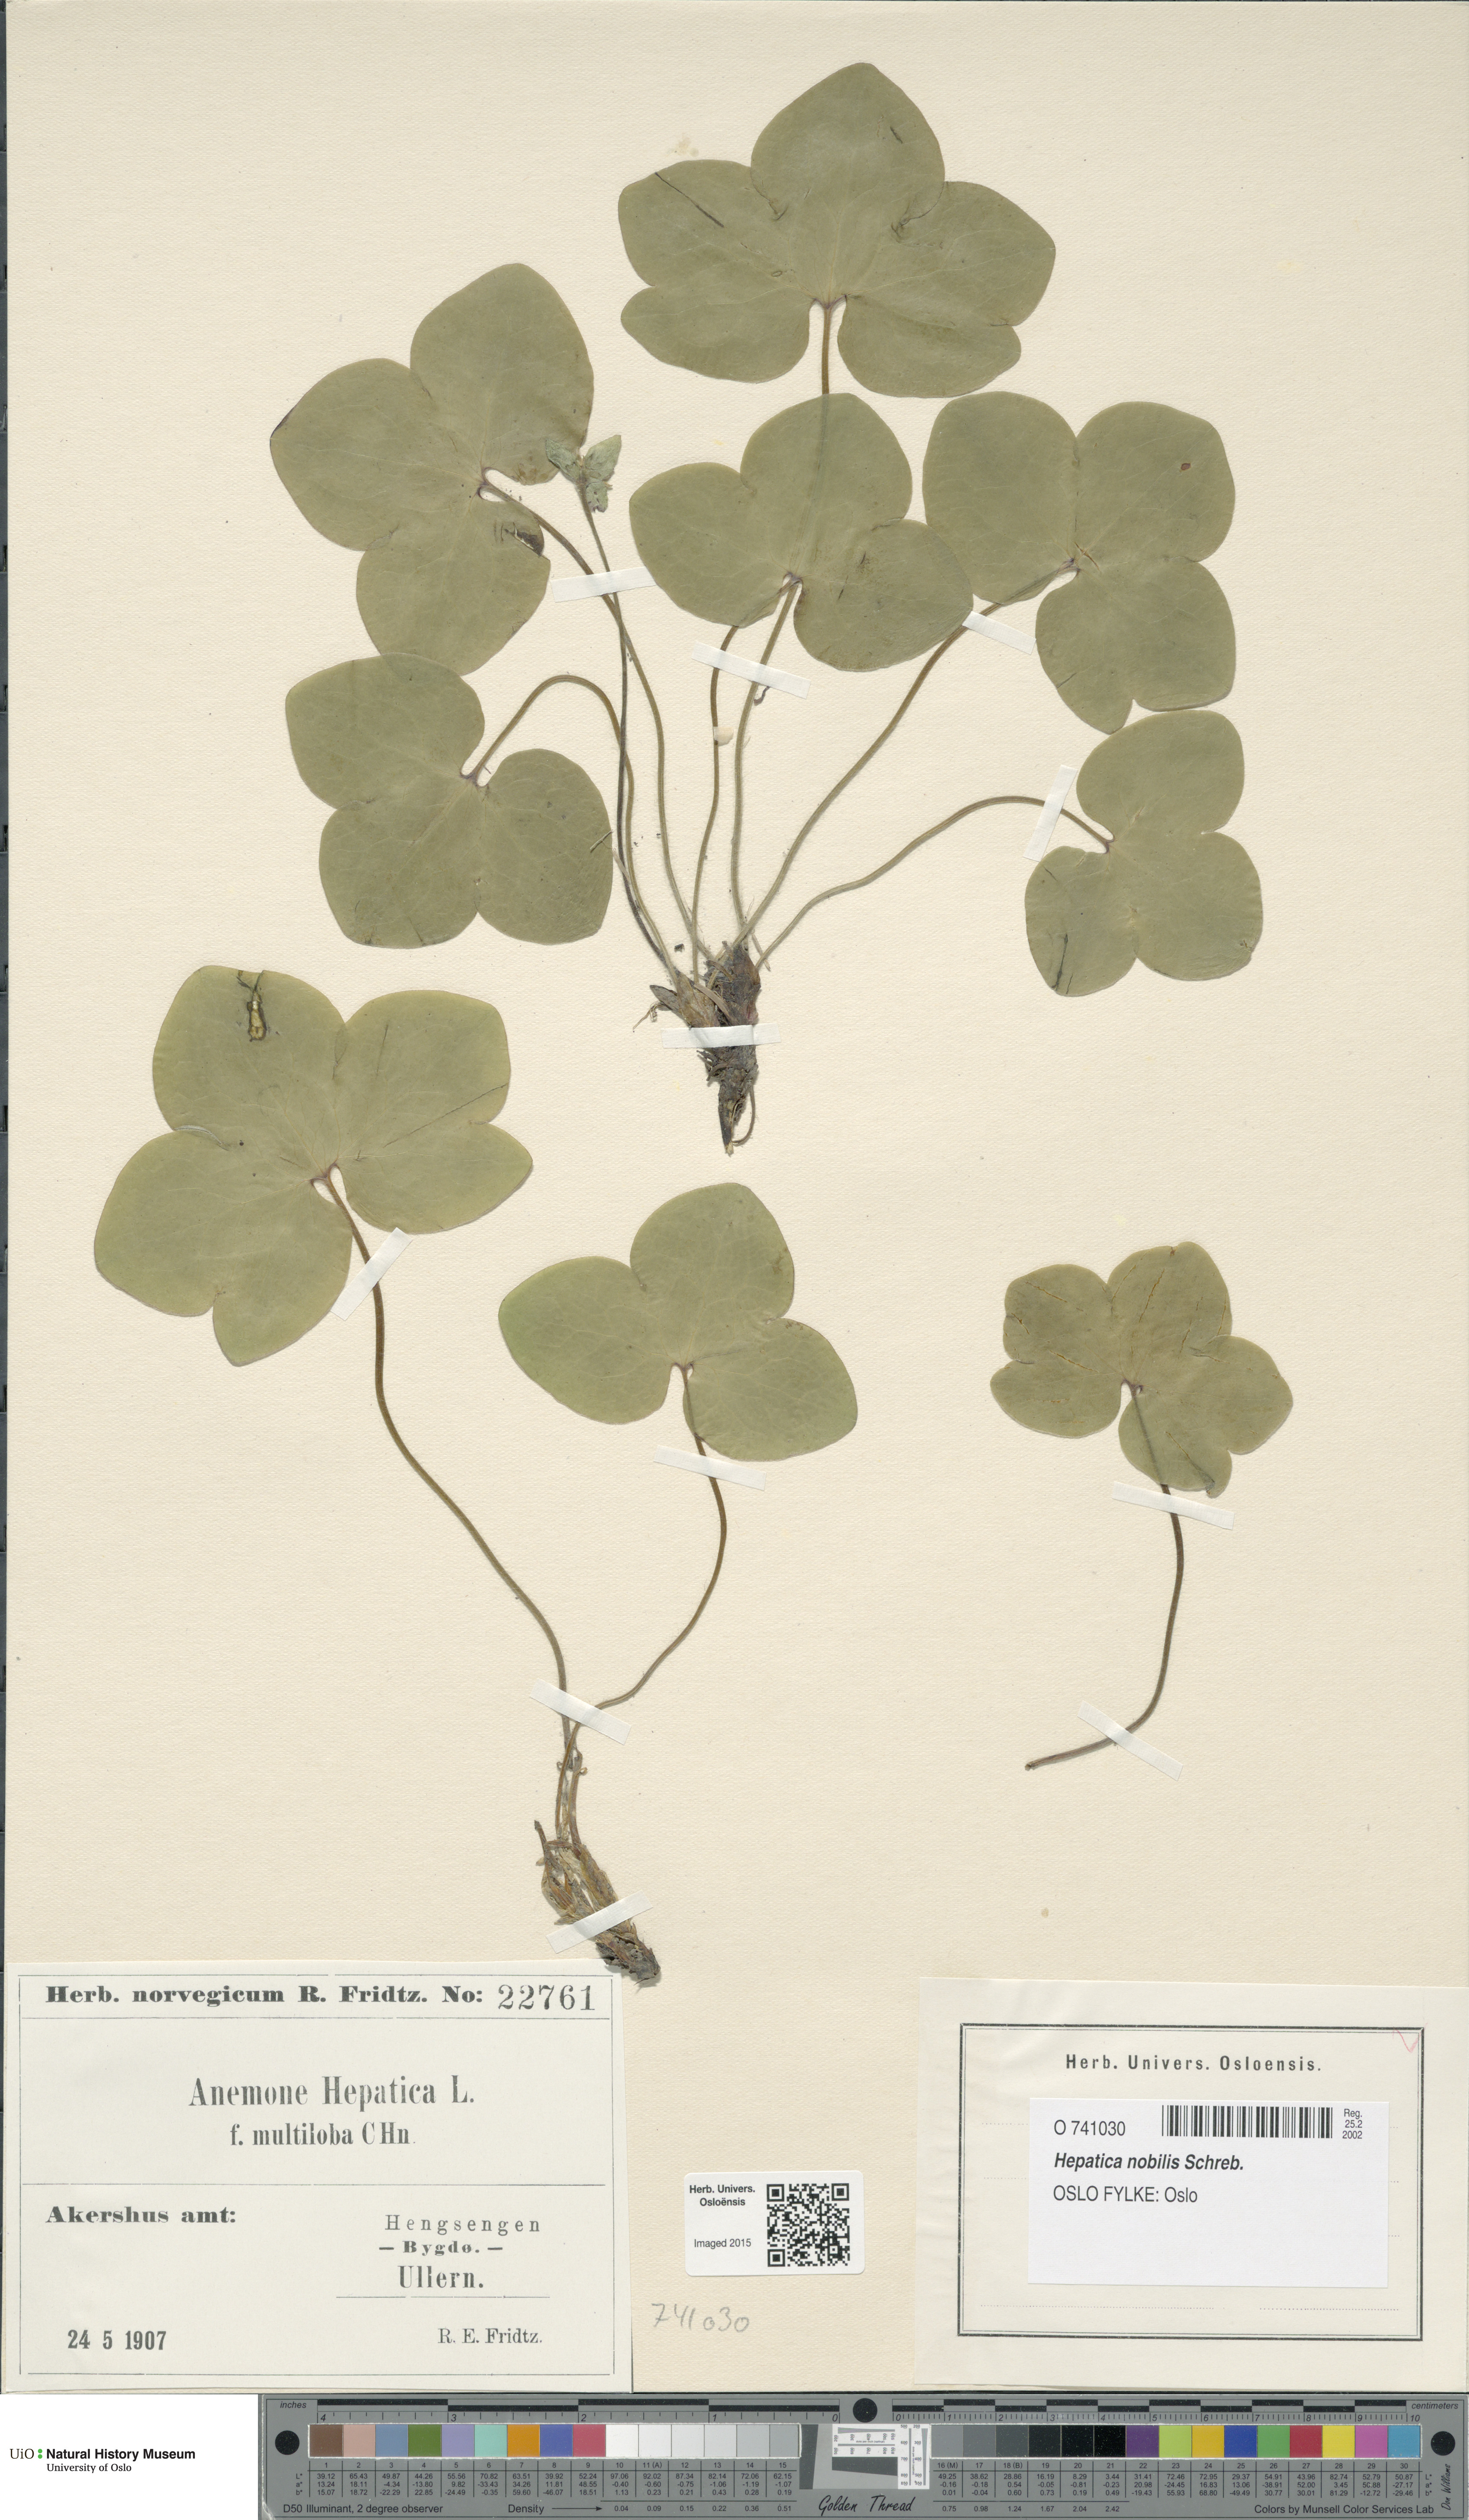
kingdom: Plantae
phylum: Tracheophyta
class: Magnoliopsida
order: Ranunculales
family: Ranunculaceae
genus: Hepatica
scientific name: Hepatica nobilis
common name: Liverleaf
